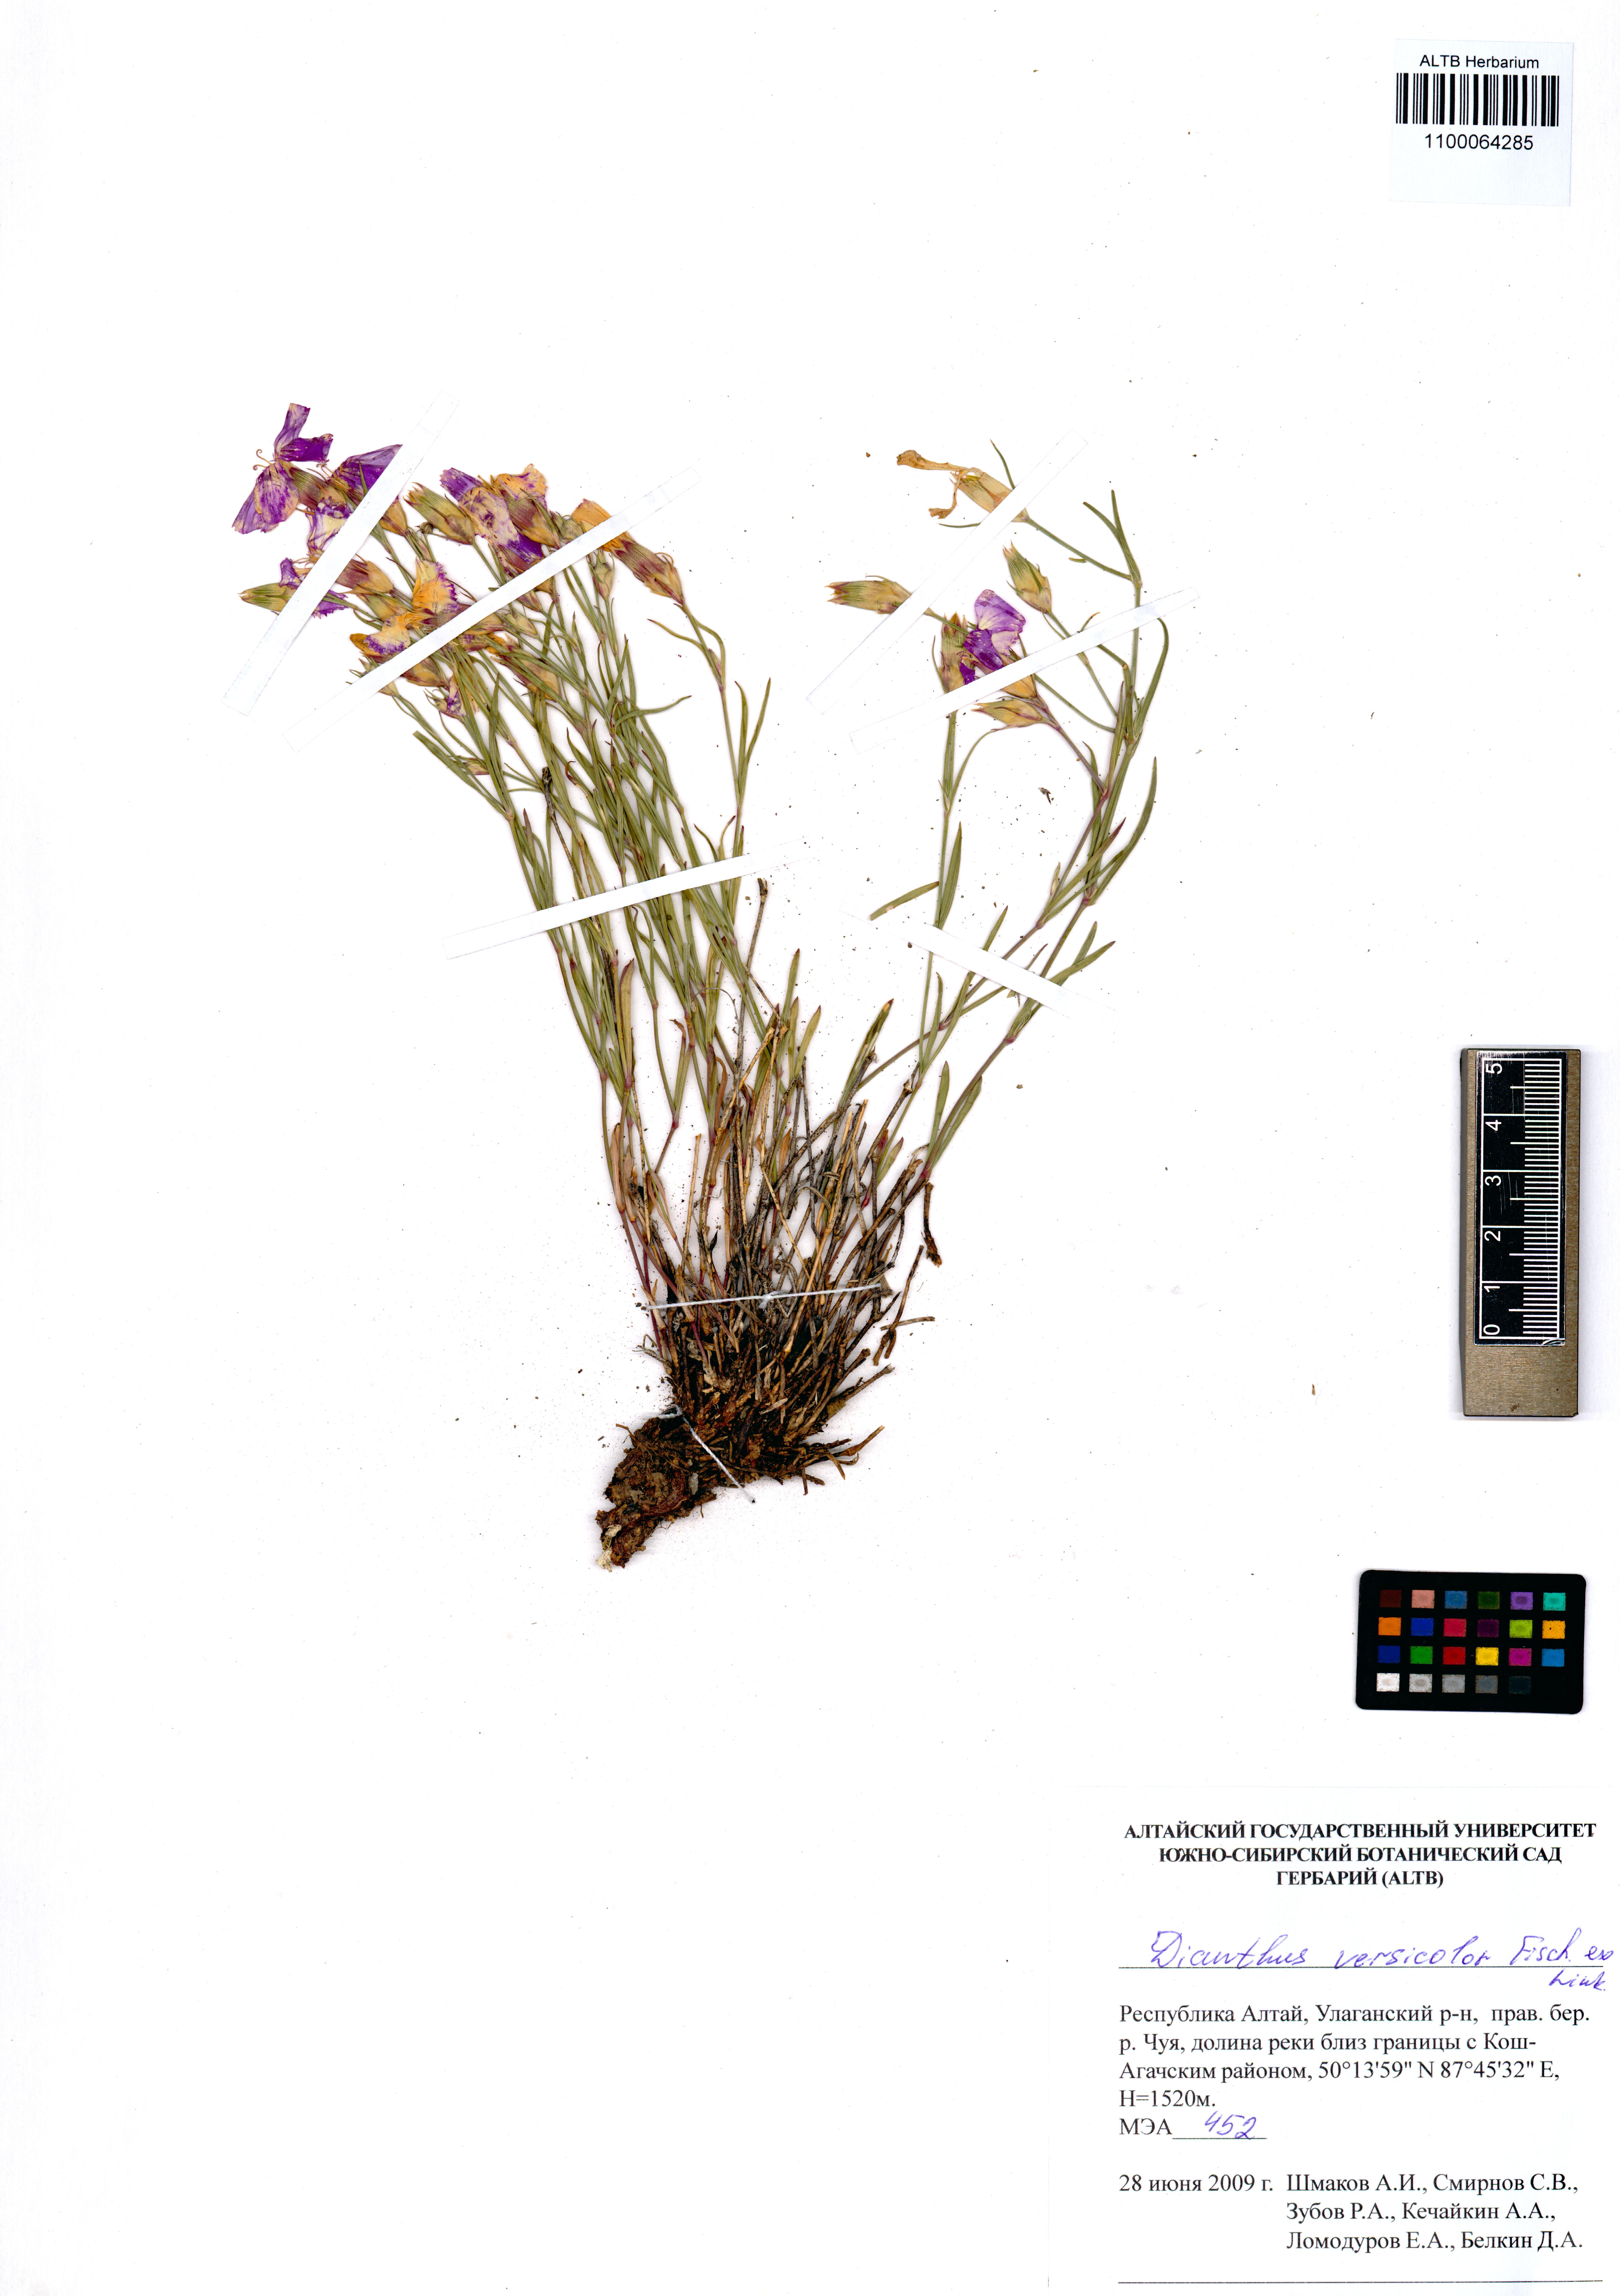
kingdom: Plantae
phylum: Tracheophyta
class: Magnoliopsida
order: Caryophyllales
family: Caryophyllaceae
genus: Dianthus
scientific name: Dianthus chinensis
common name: Rainbow pink
